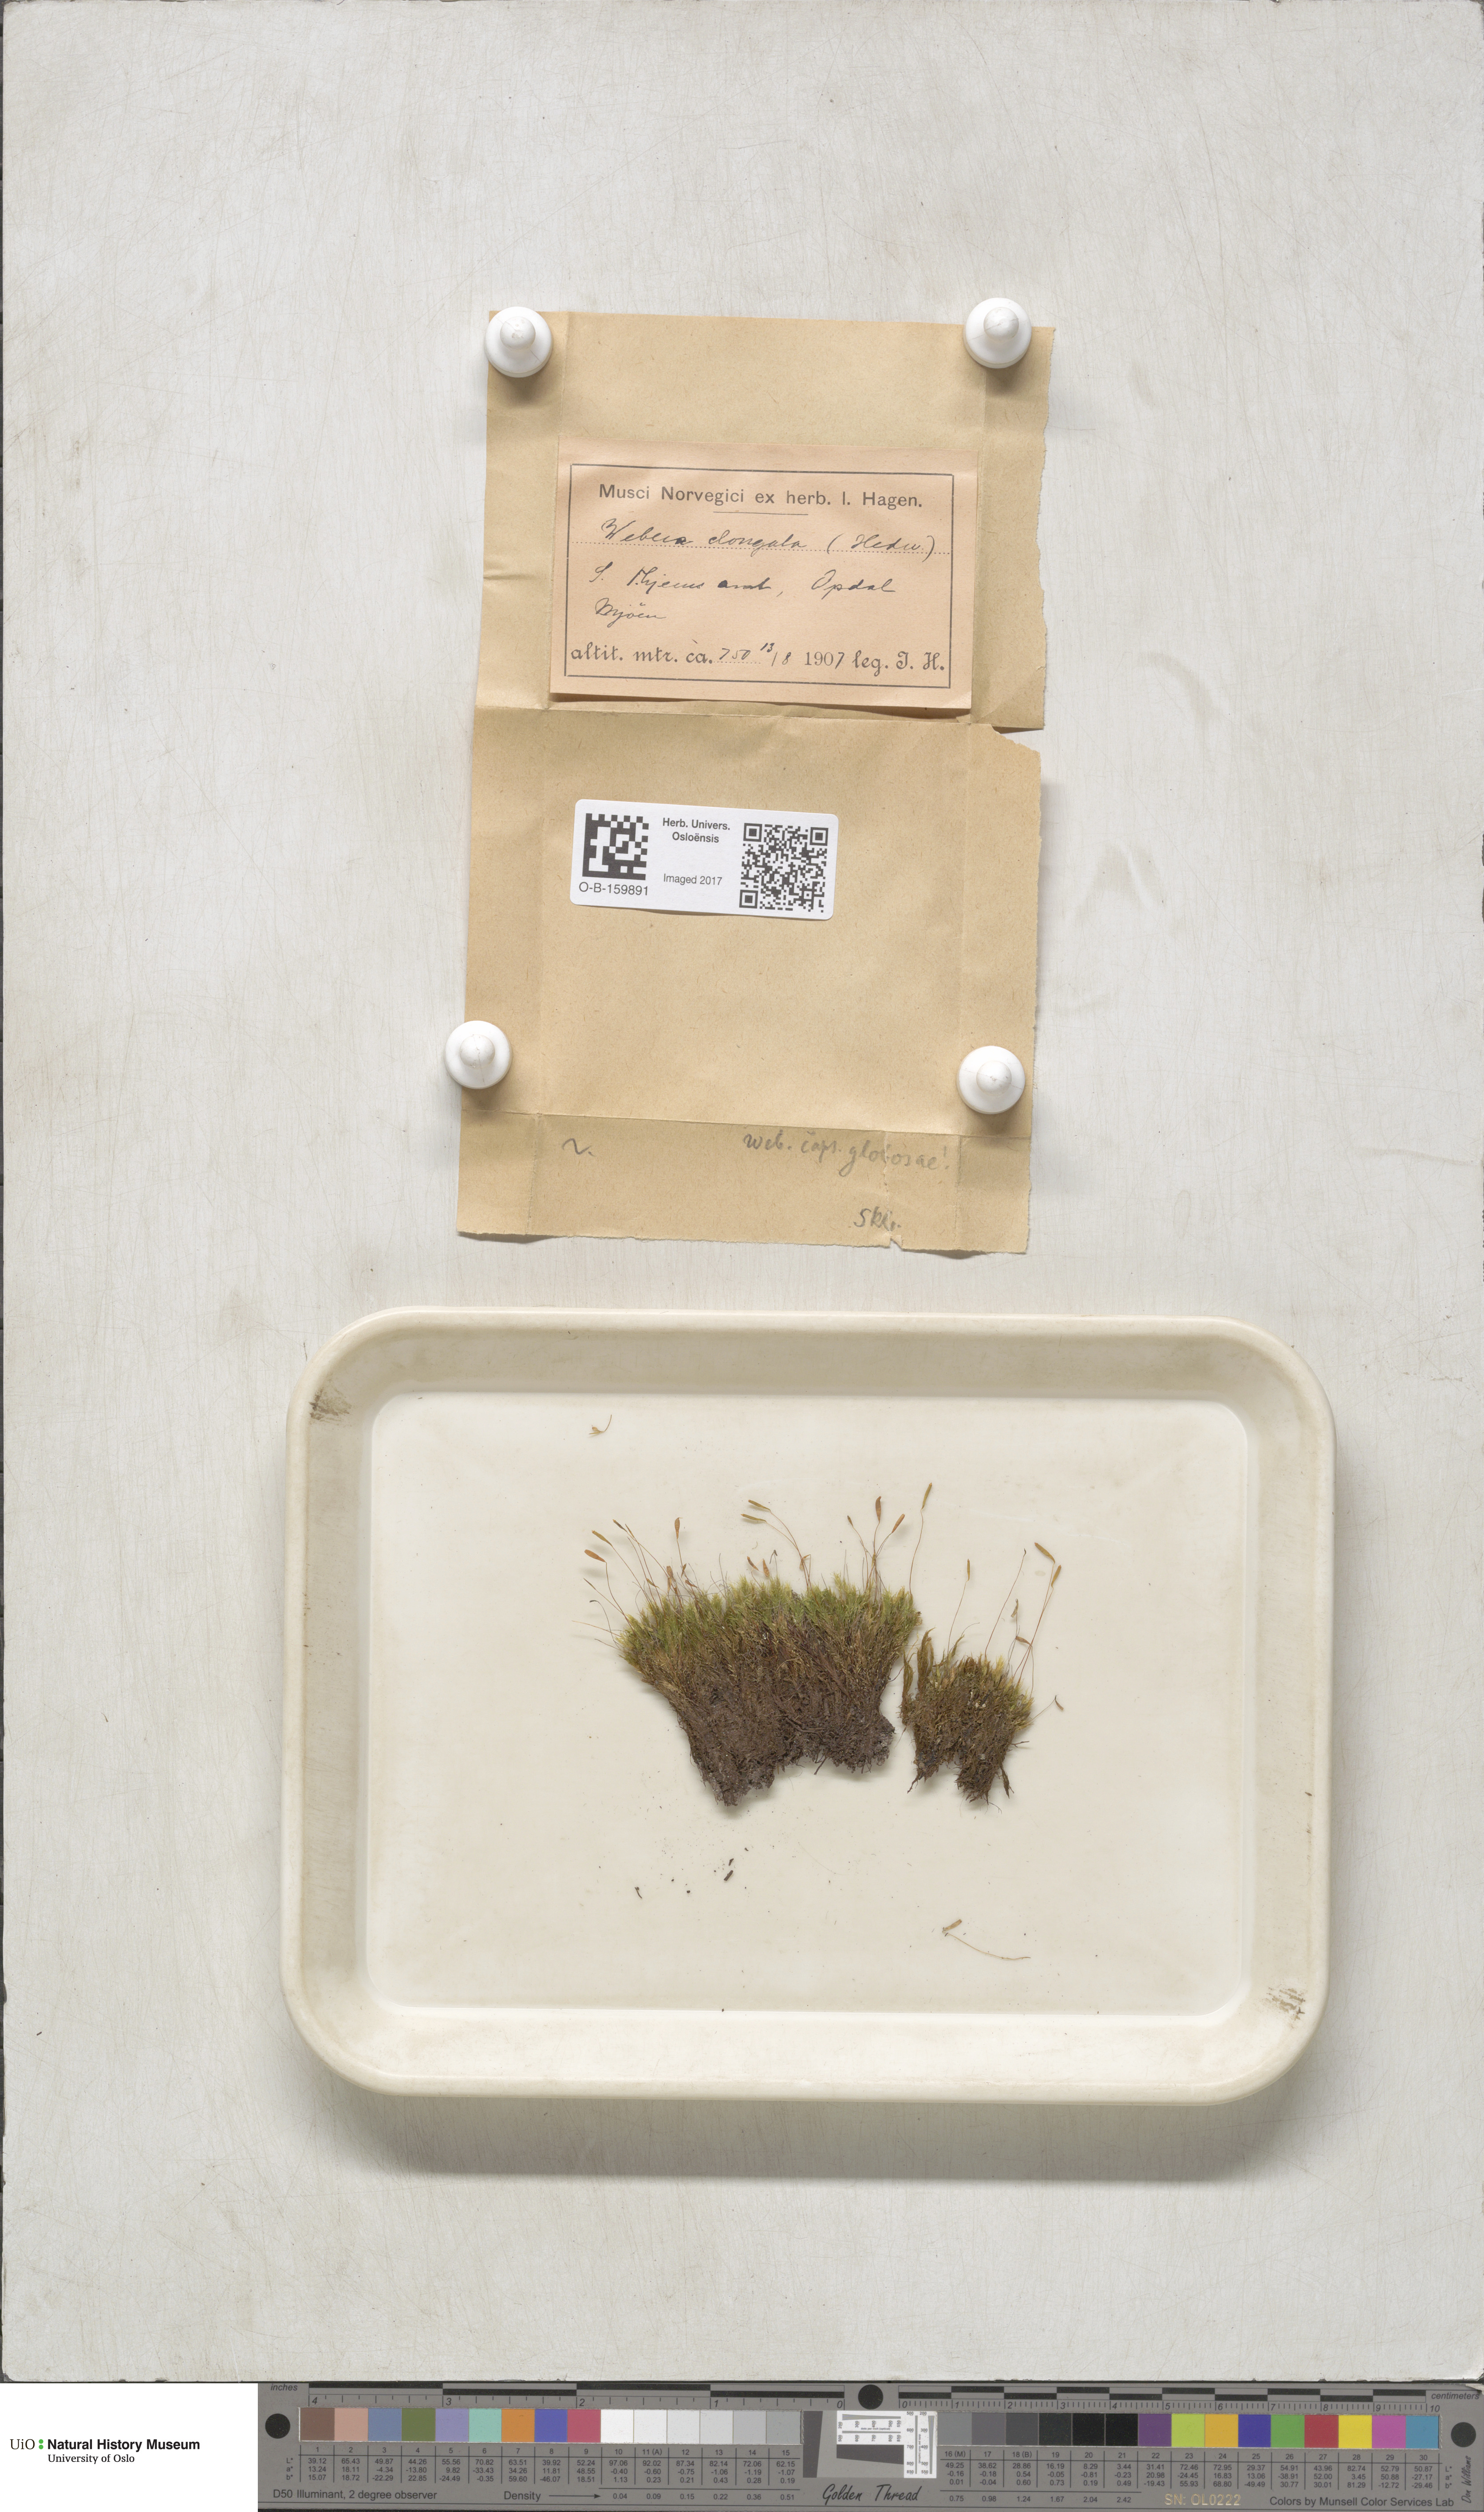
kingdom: Plantae
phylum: Bryophyta
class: Bryopsida
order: Bryales
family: Mniaceae
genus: Pohlia
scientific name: Pohlia elongata
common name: Long-fruited thread-moss
